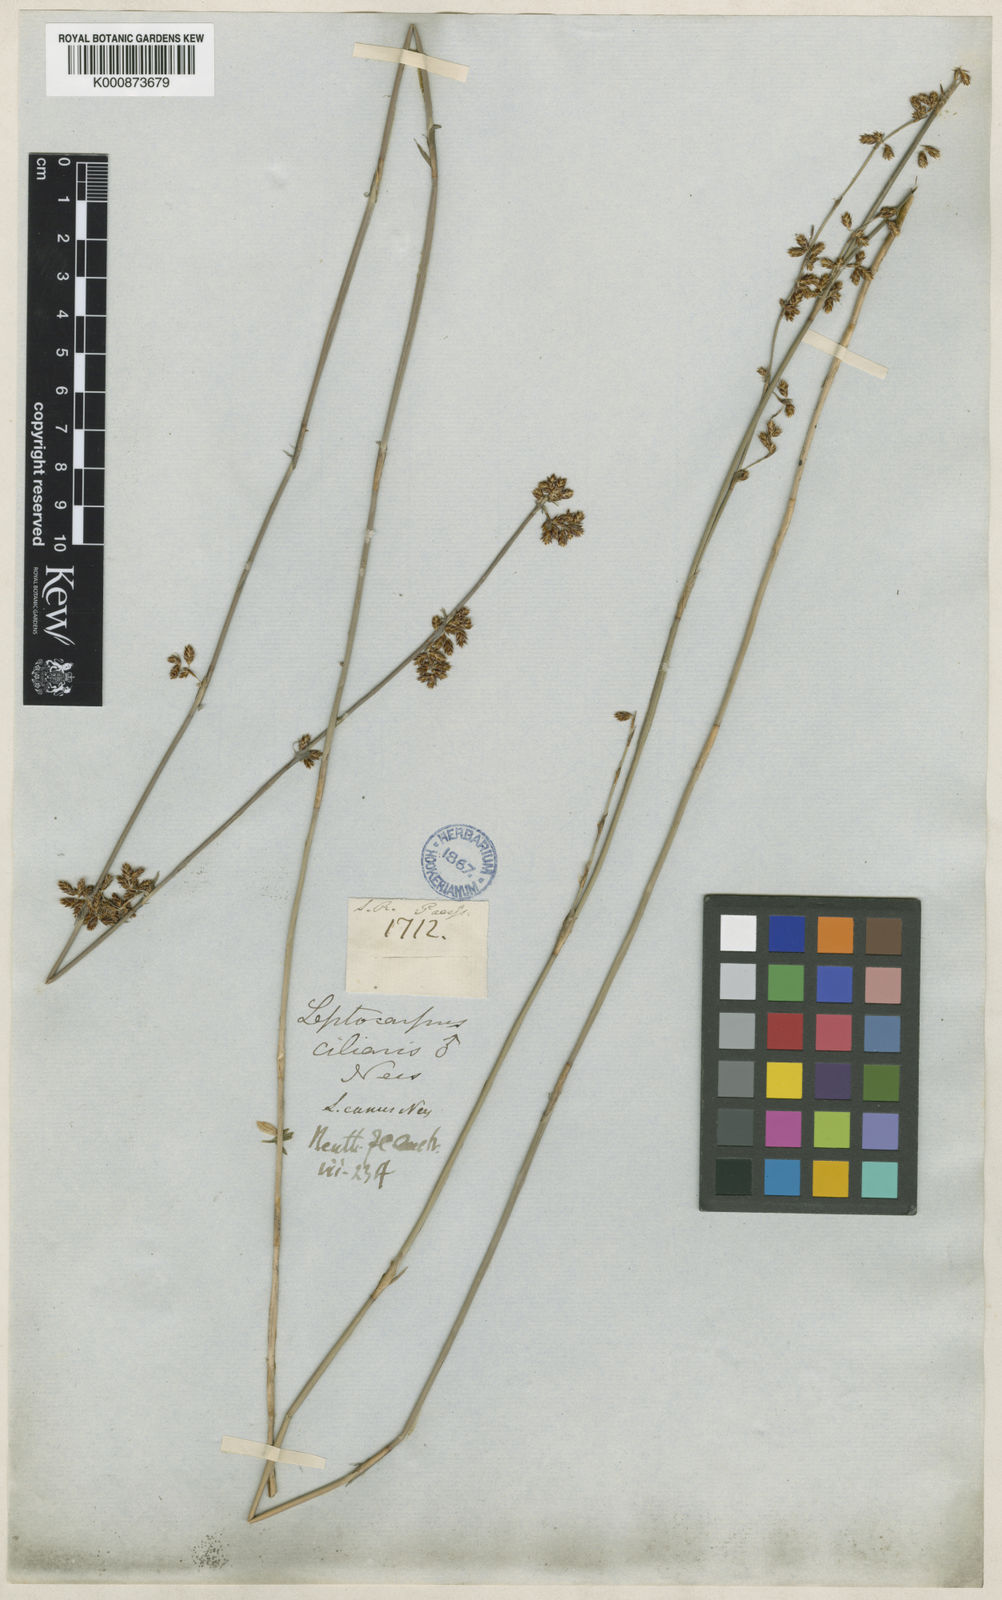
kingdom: Plantae
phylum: Tracheophyta
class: Liliopsida
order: Poales
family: Restionaceae
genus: Leptocarpus
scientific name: Leptocarpus canus
